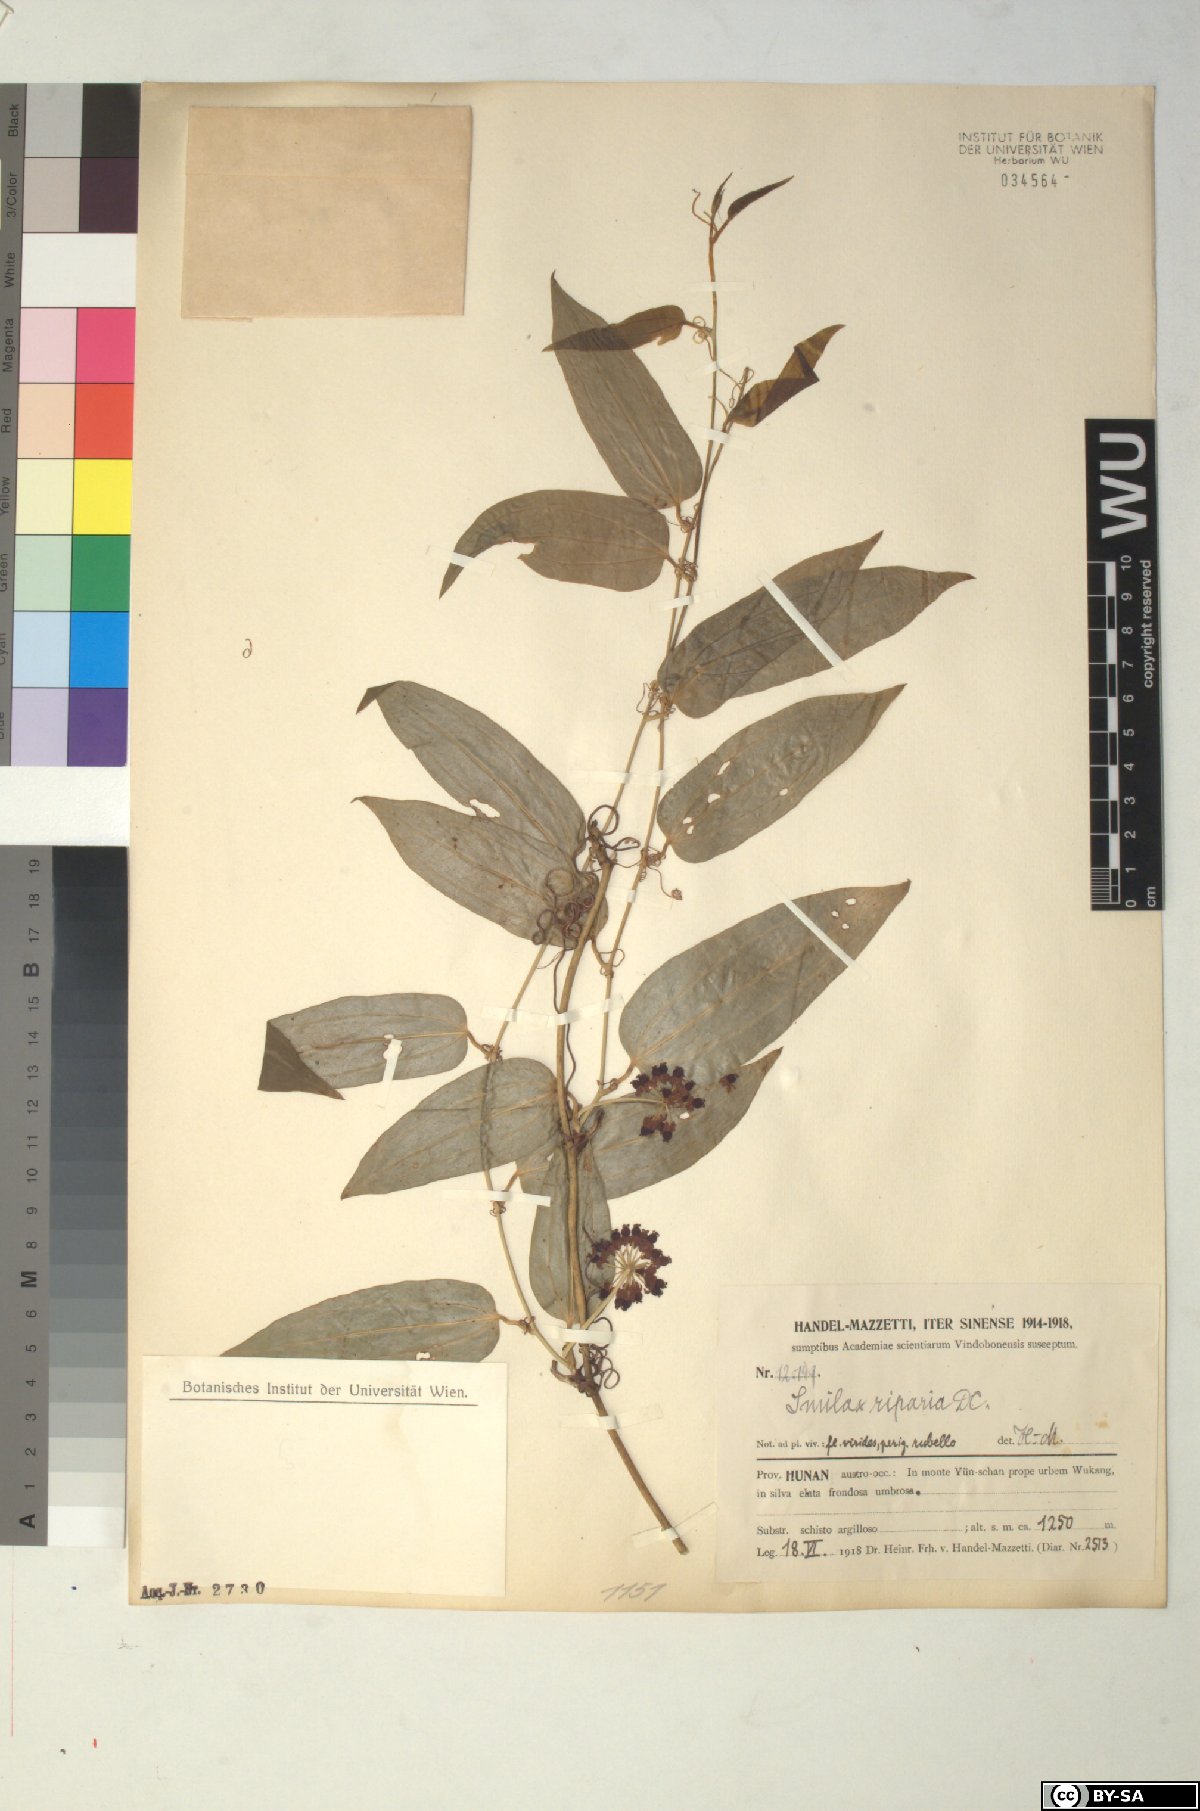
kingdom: Plantae
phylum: Tracheophyta
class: Liliopsida
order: Liliales
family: Smilacaceae
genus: Smilax
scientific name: Smilax riparia
